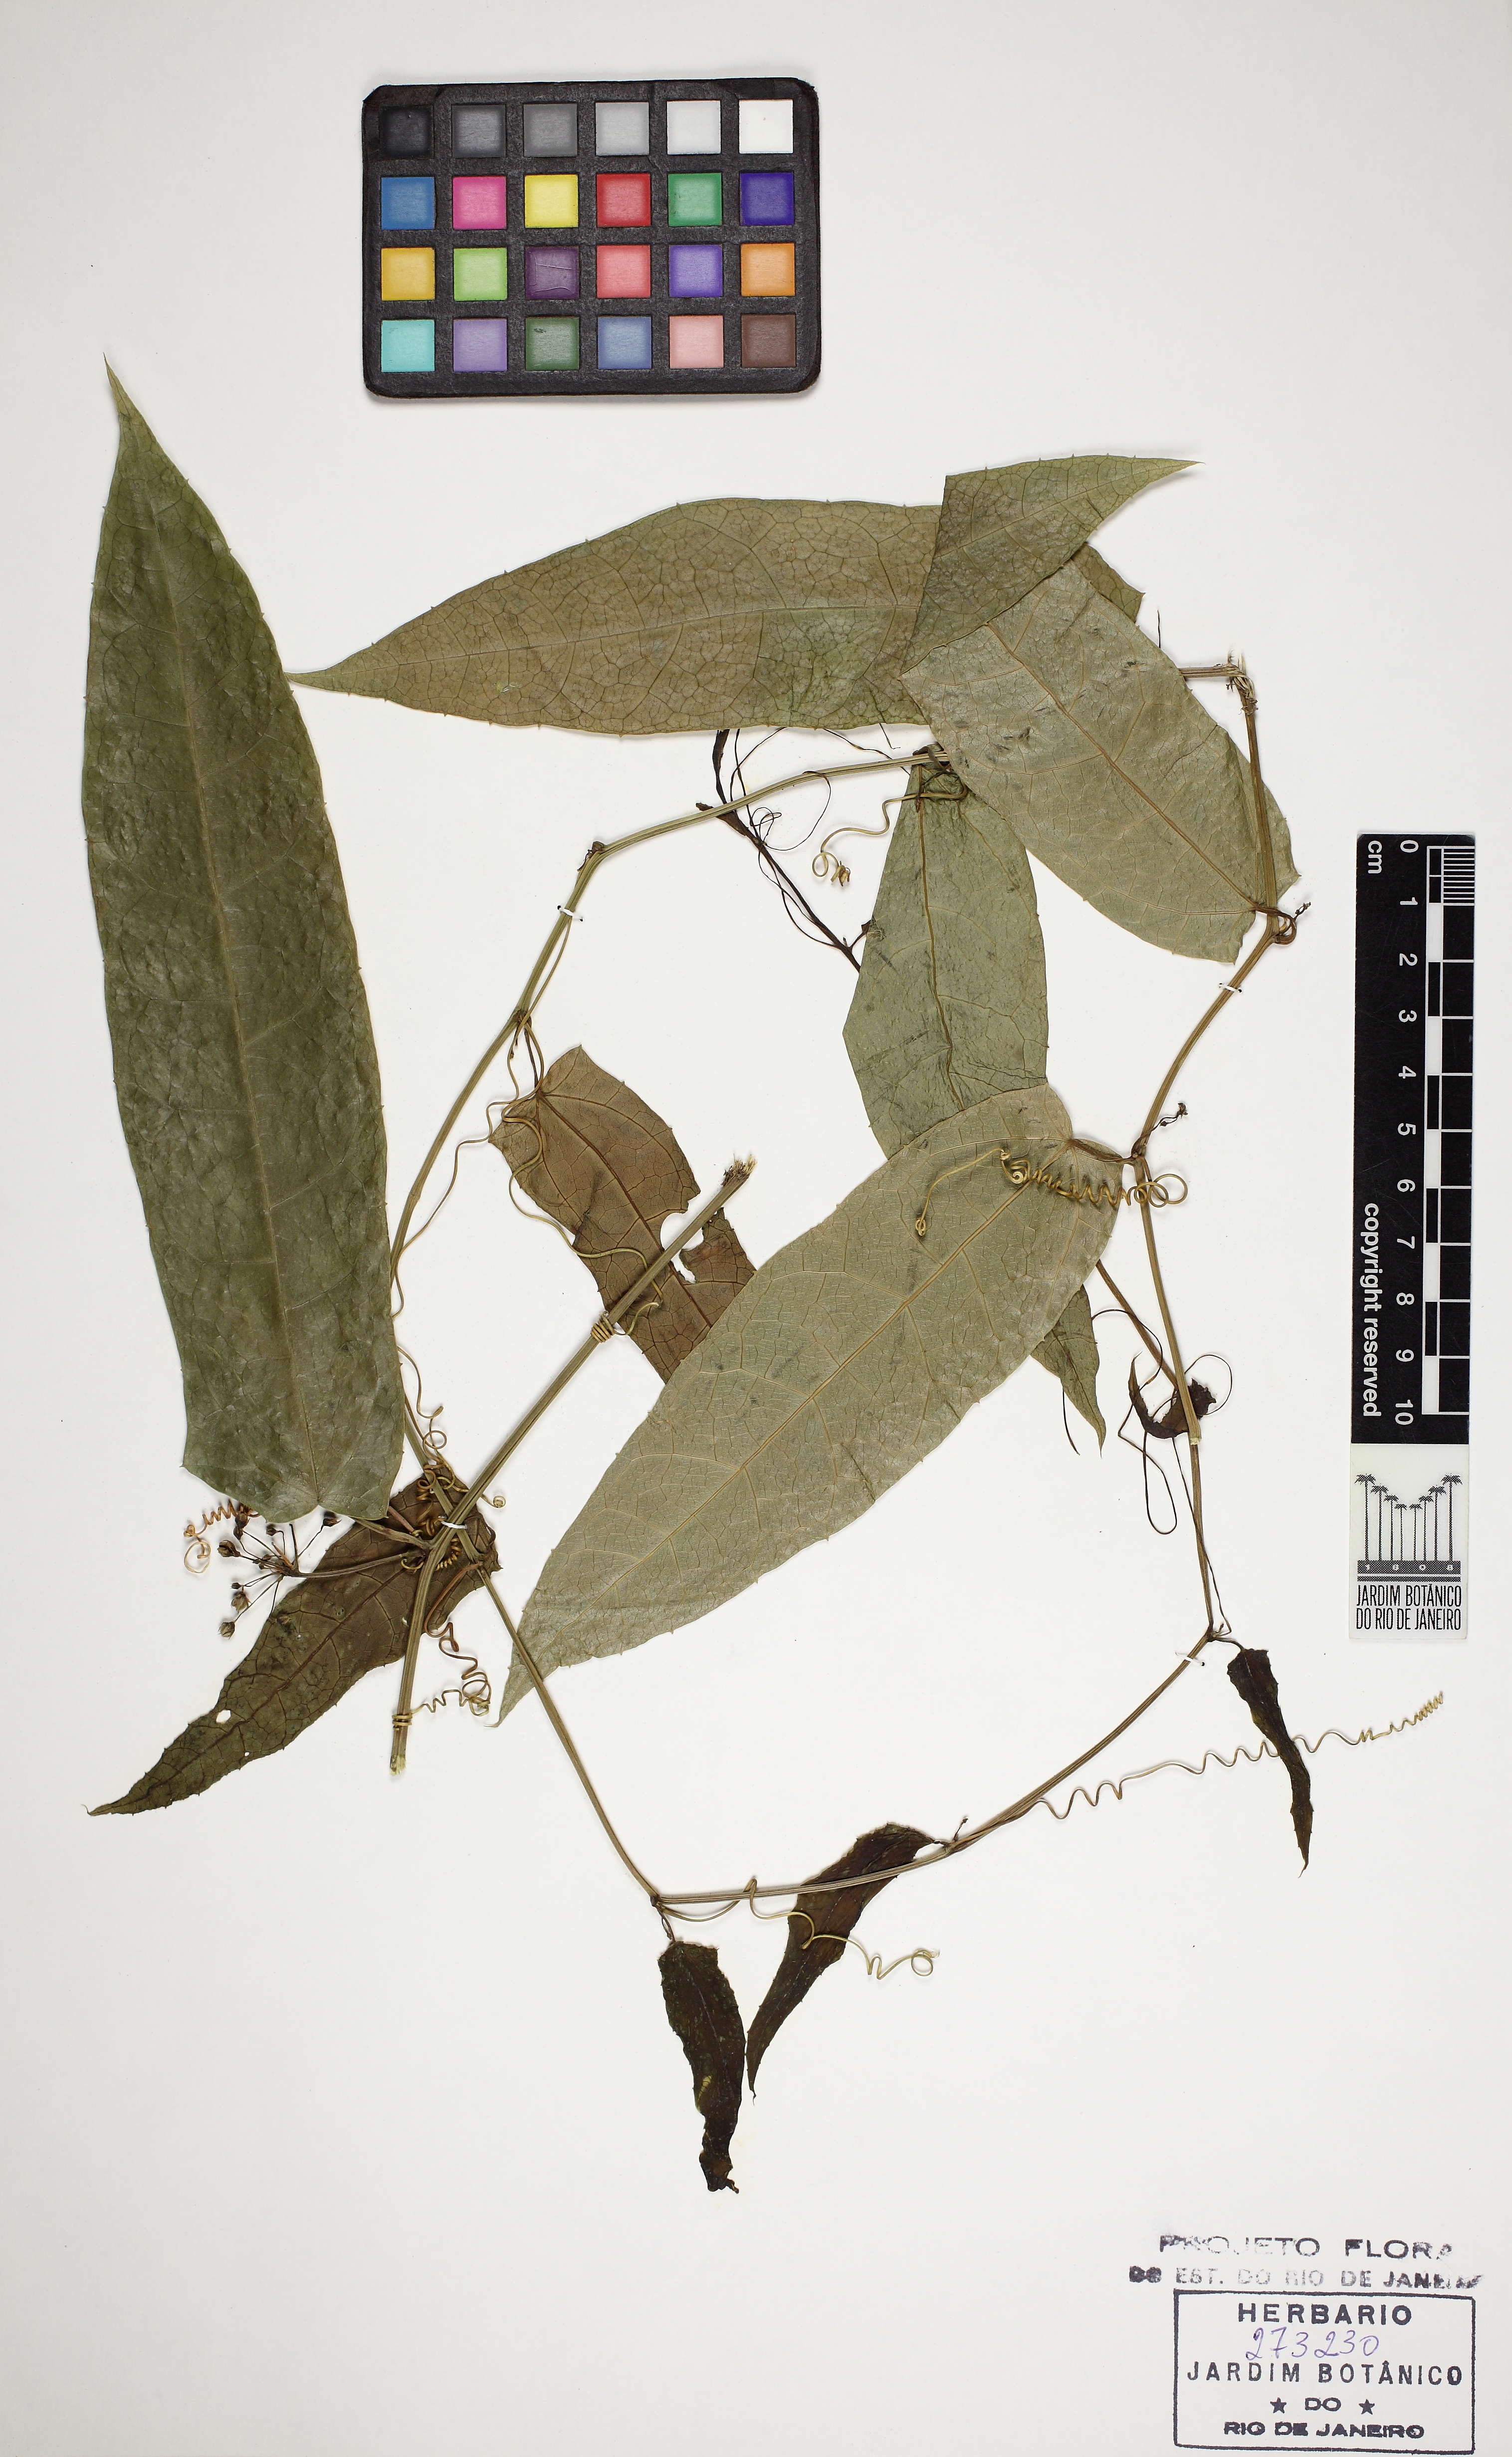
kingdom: Plantae
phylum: Tracheophyta
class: Magnoliopsida
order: Cucurbitales
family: Cucurbitaceae
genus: Apodanthera
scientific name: Apodanthera smilacifolia
